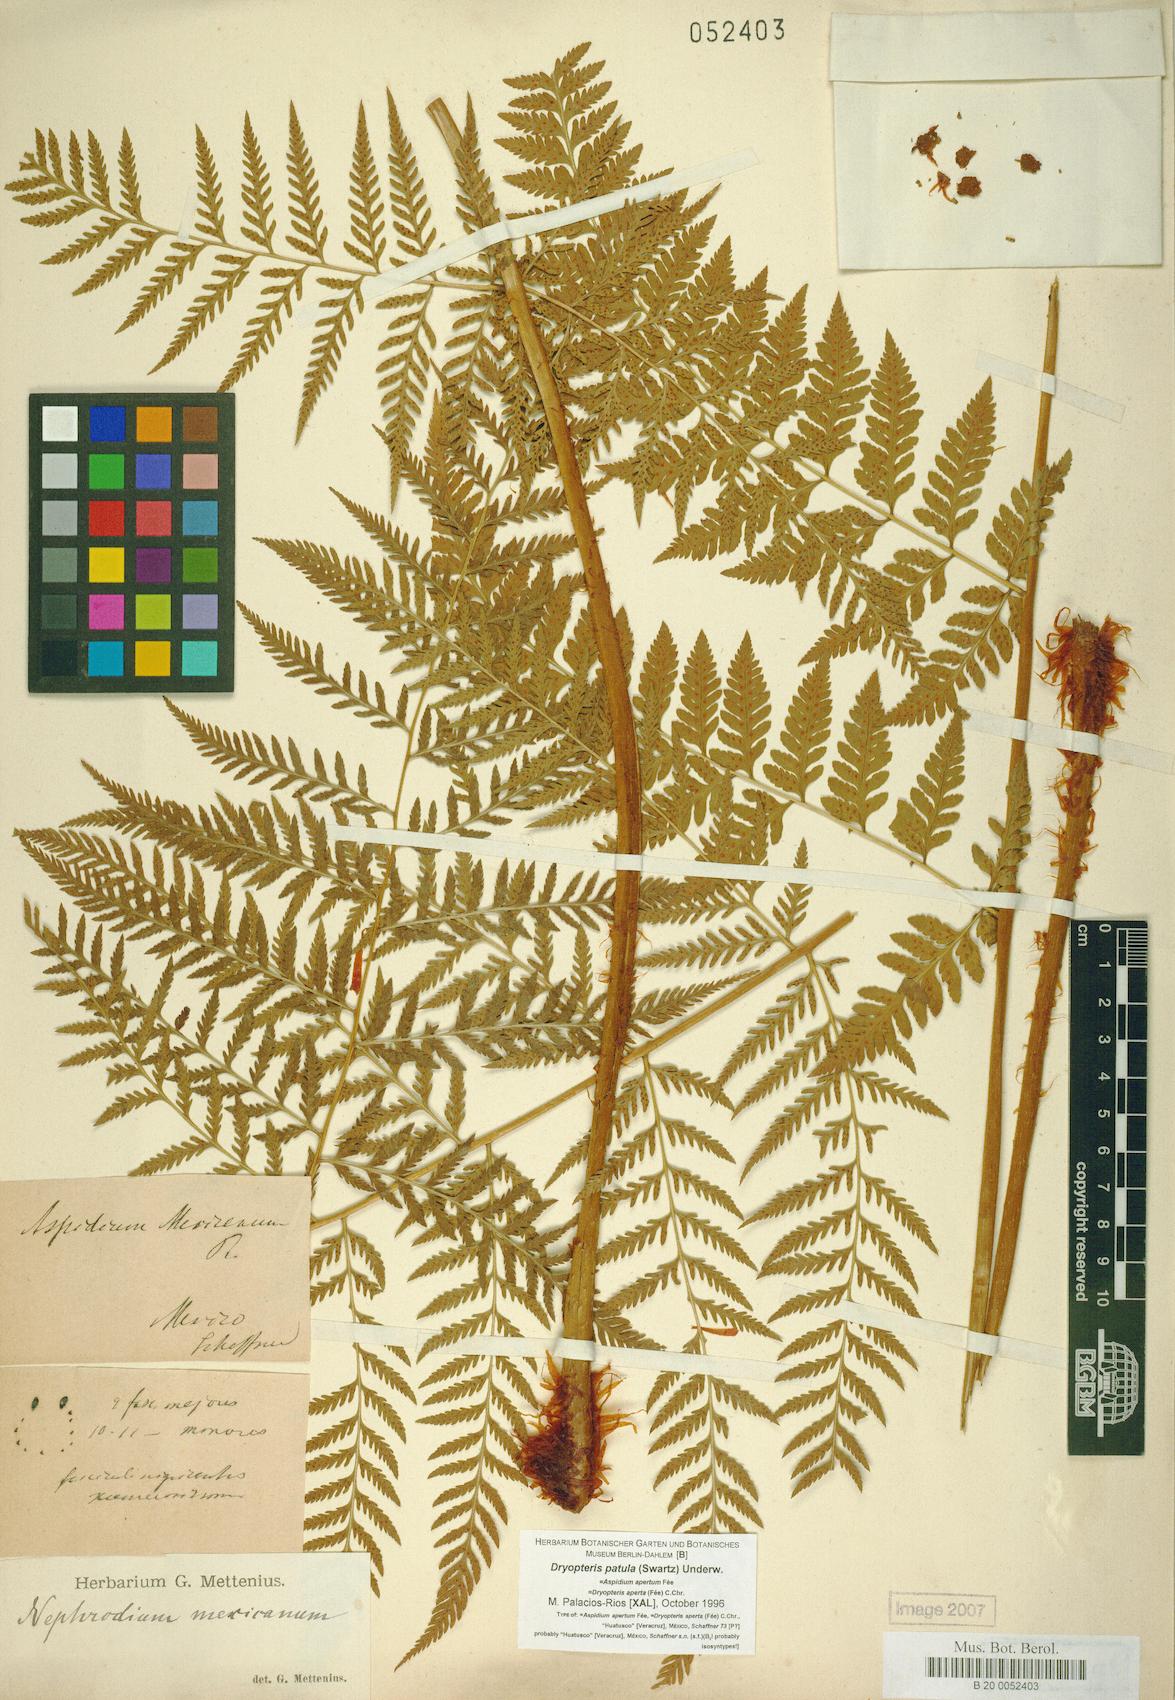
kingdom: Plantae
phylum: Tracheophyta
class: Polypodiopsida
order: Polypodiales
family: Dryopteridaceae
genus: Dryopteris
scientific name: Dryopteris patula
